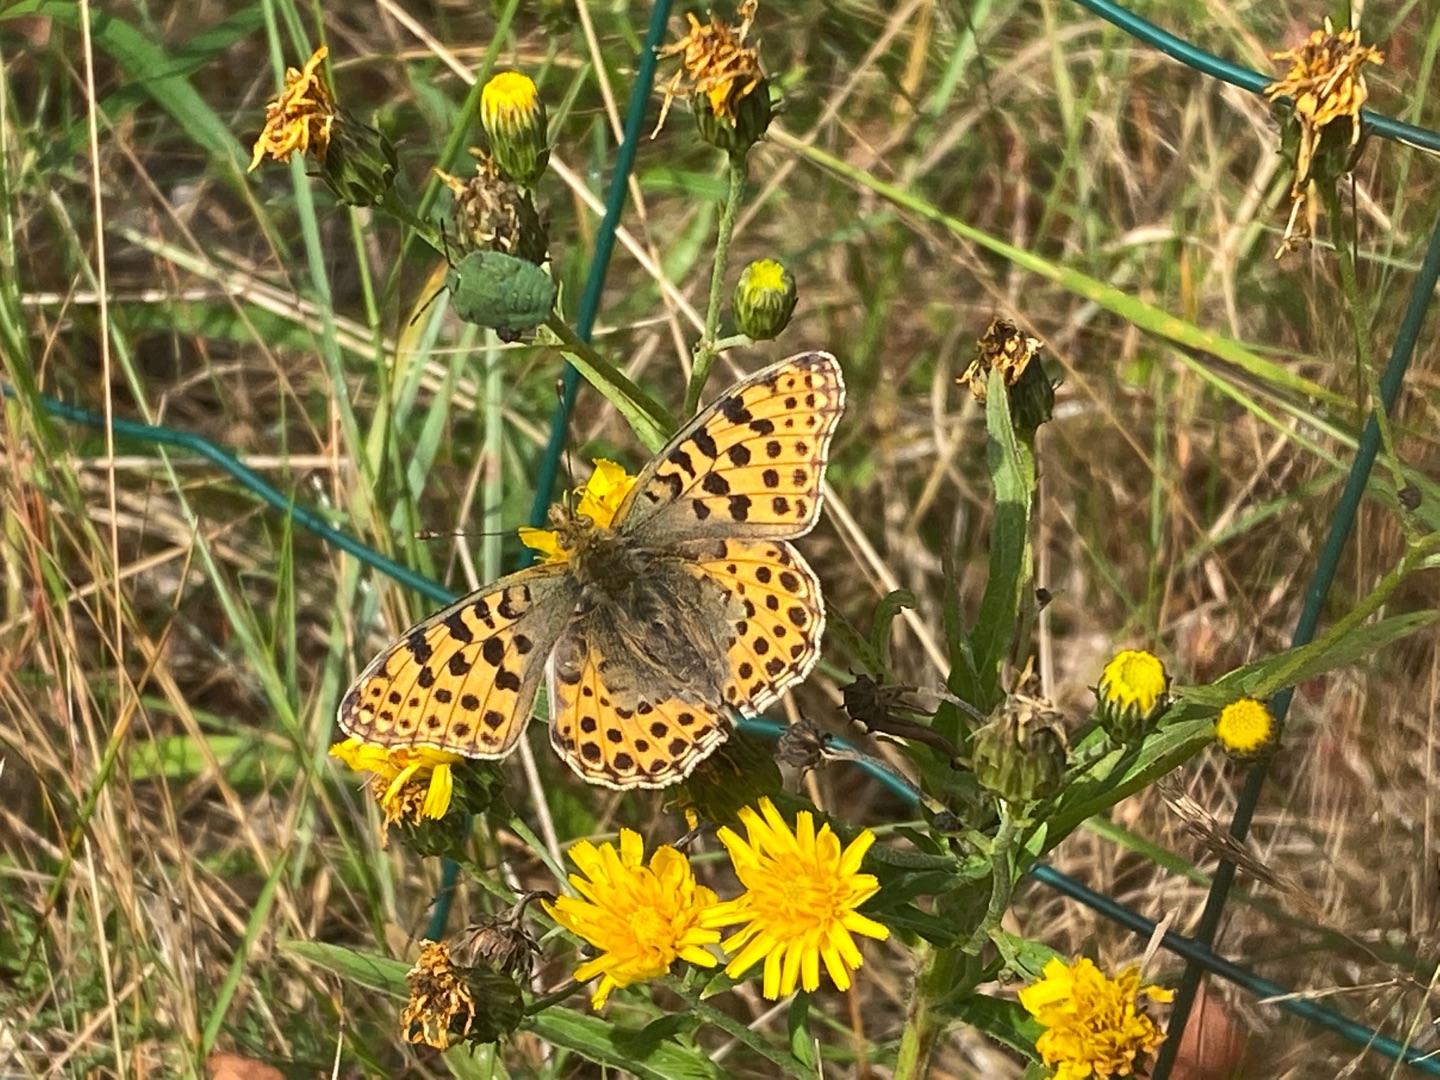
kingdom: Animalia
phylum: Arthropoda
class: Insecta
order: Lepidoptera
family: Nymphalidae
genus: Issoria
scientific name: Issoria lathonia
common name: Storplettet perlemorsommerfugl
